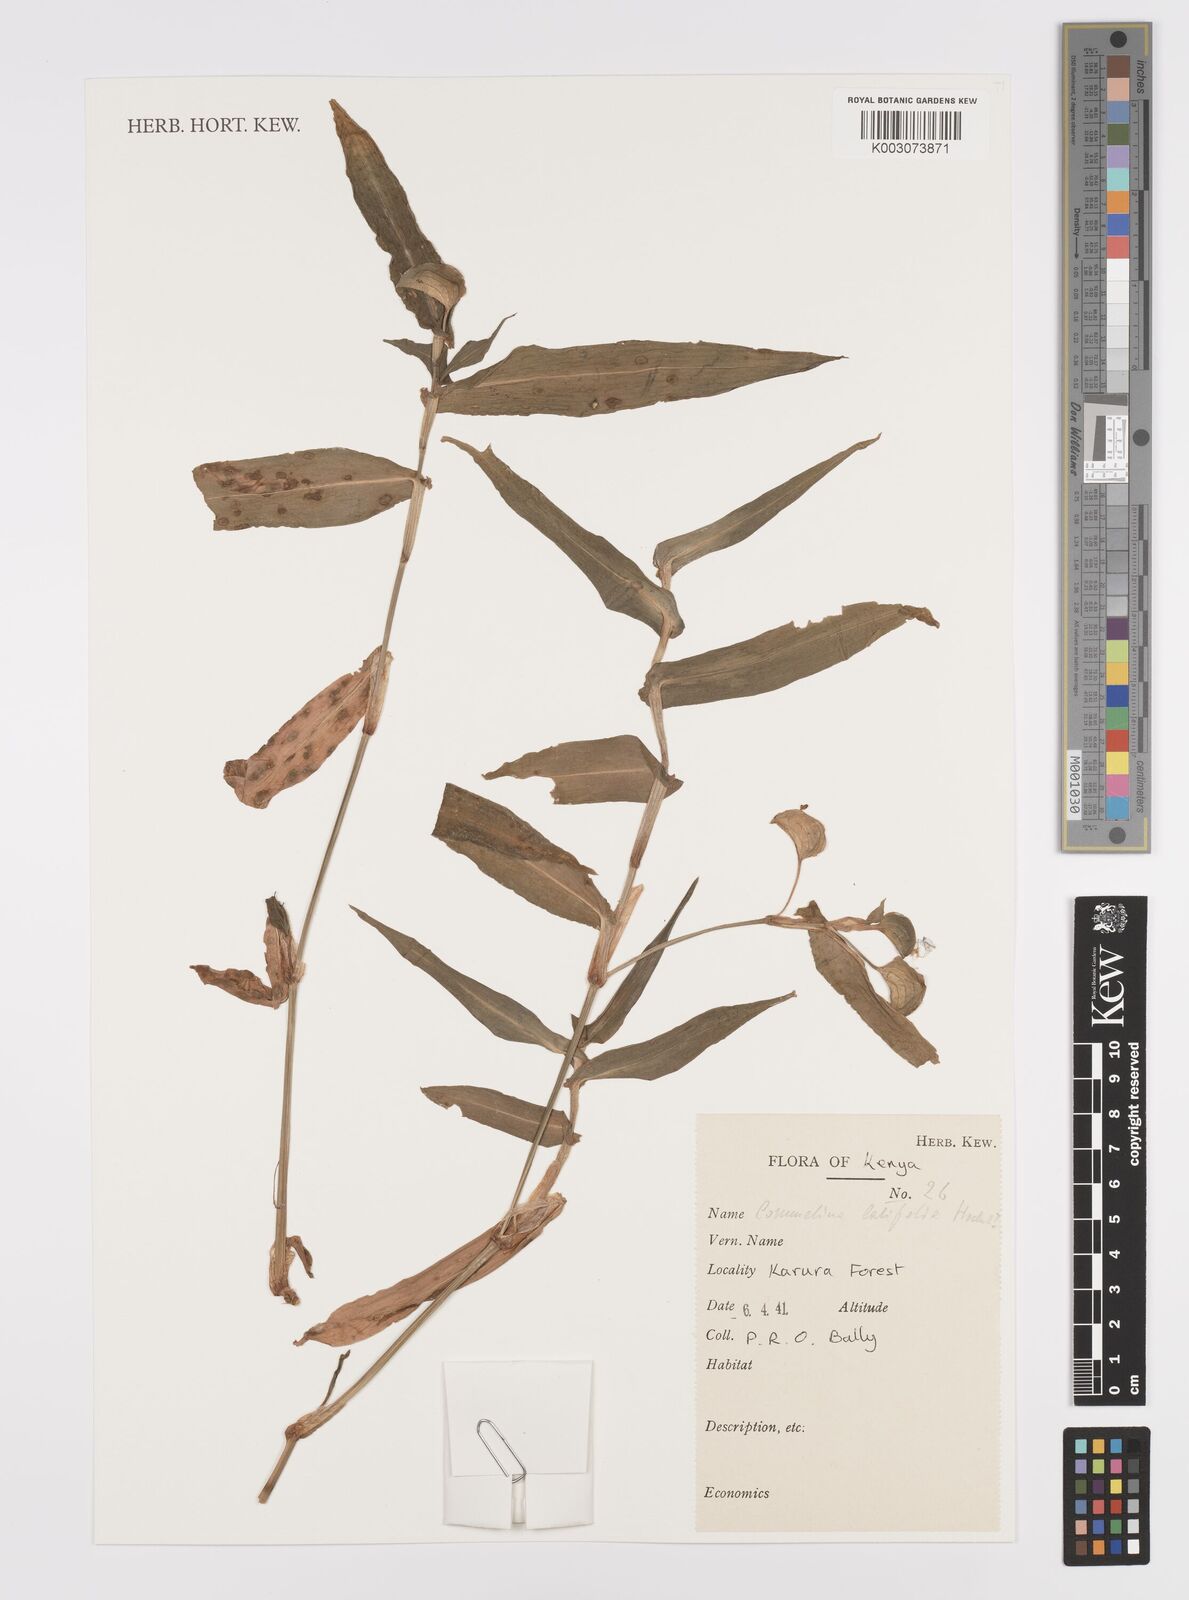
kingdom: Plantae
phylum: Tracheophyta
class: Liliopsida
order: Commelinales
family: Commelinaceae
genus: Commelina
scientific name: Commelina latifolia
